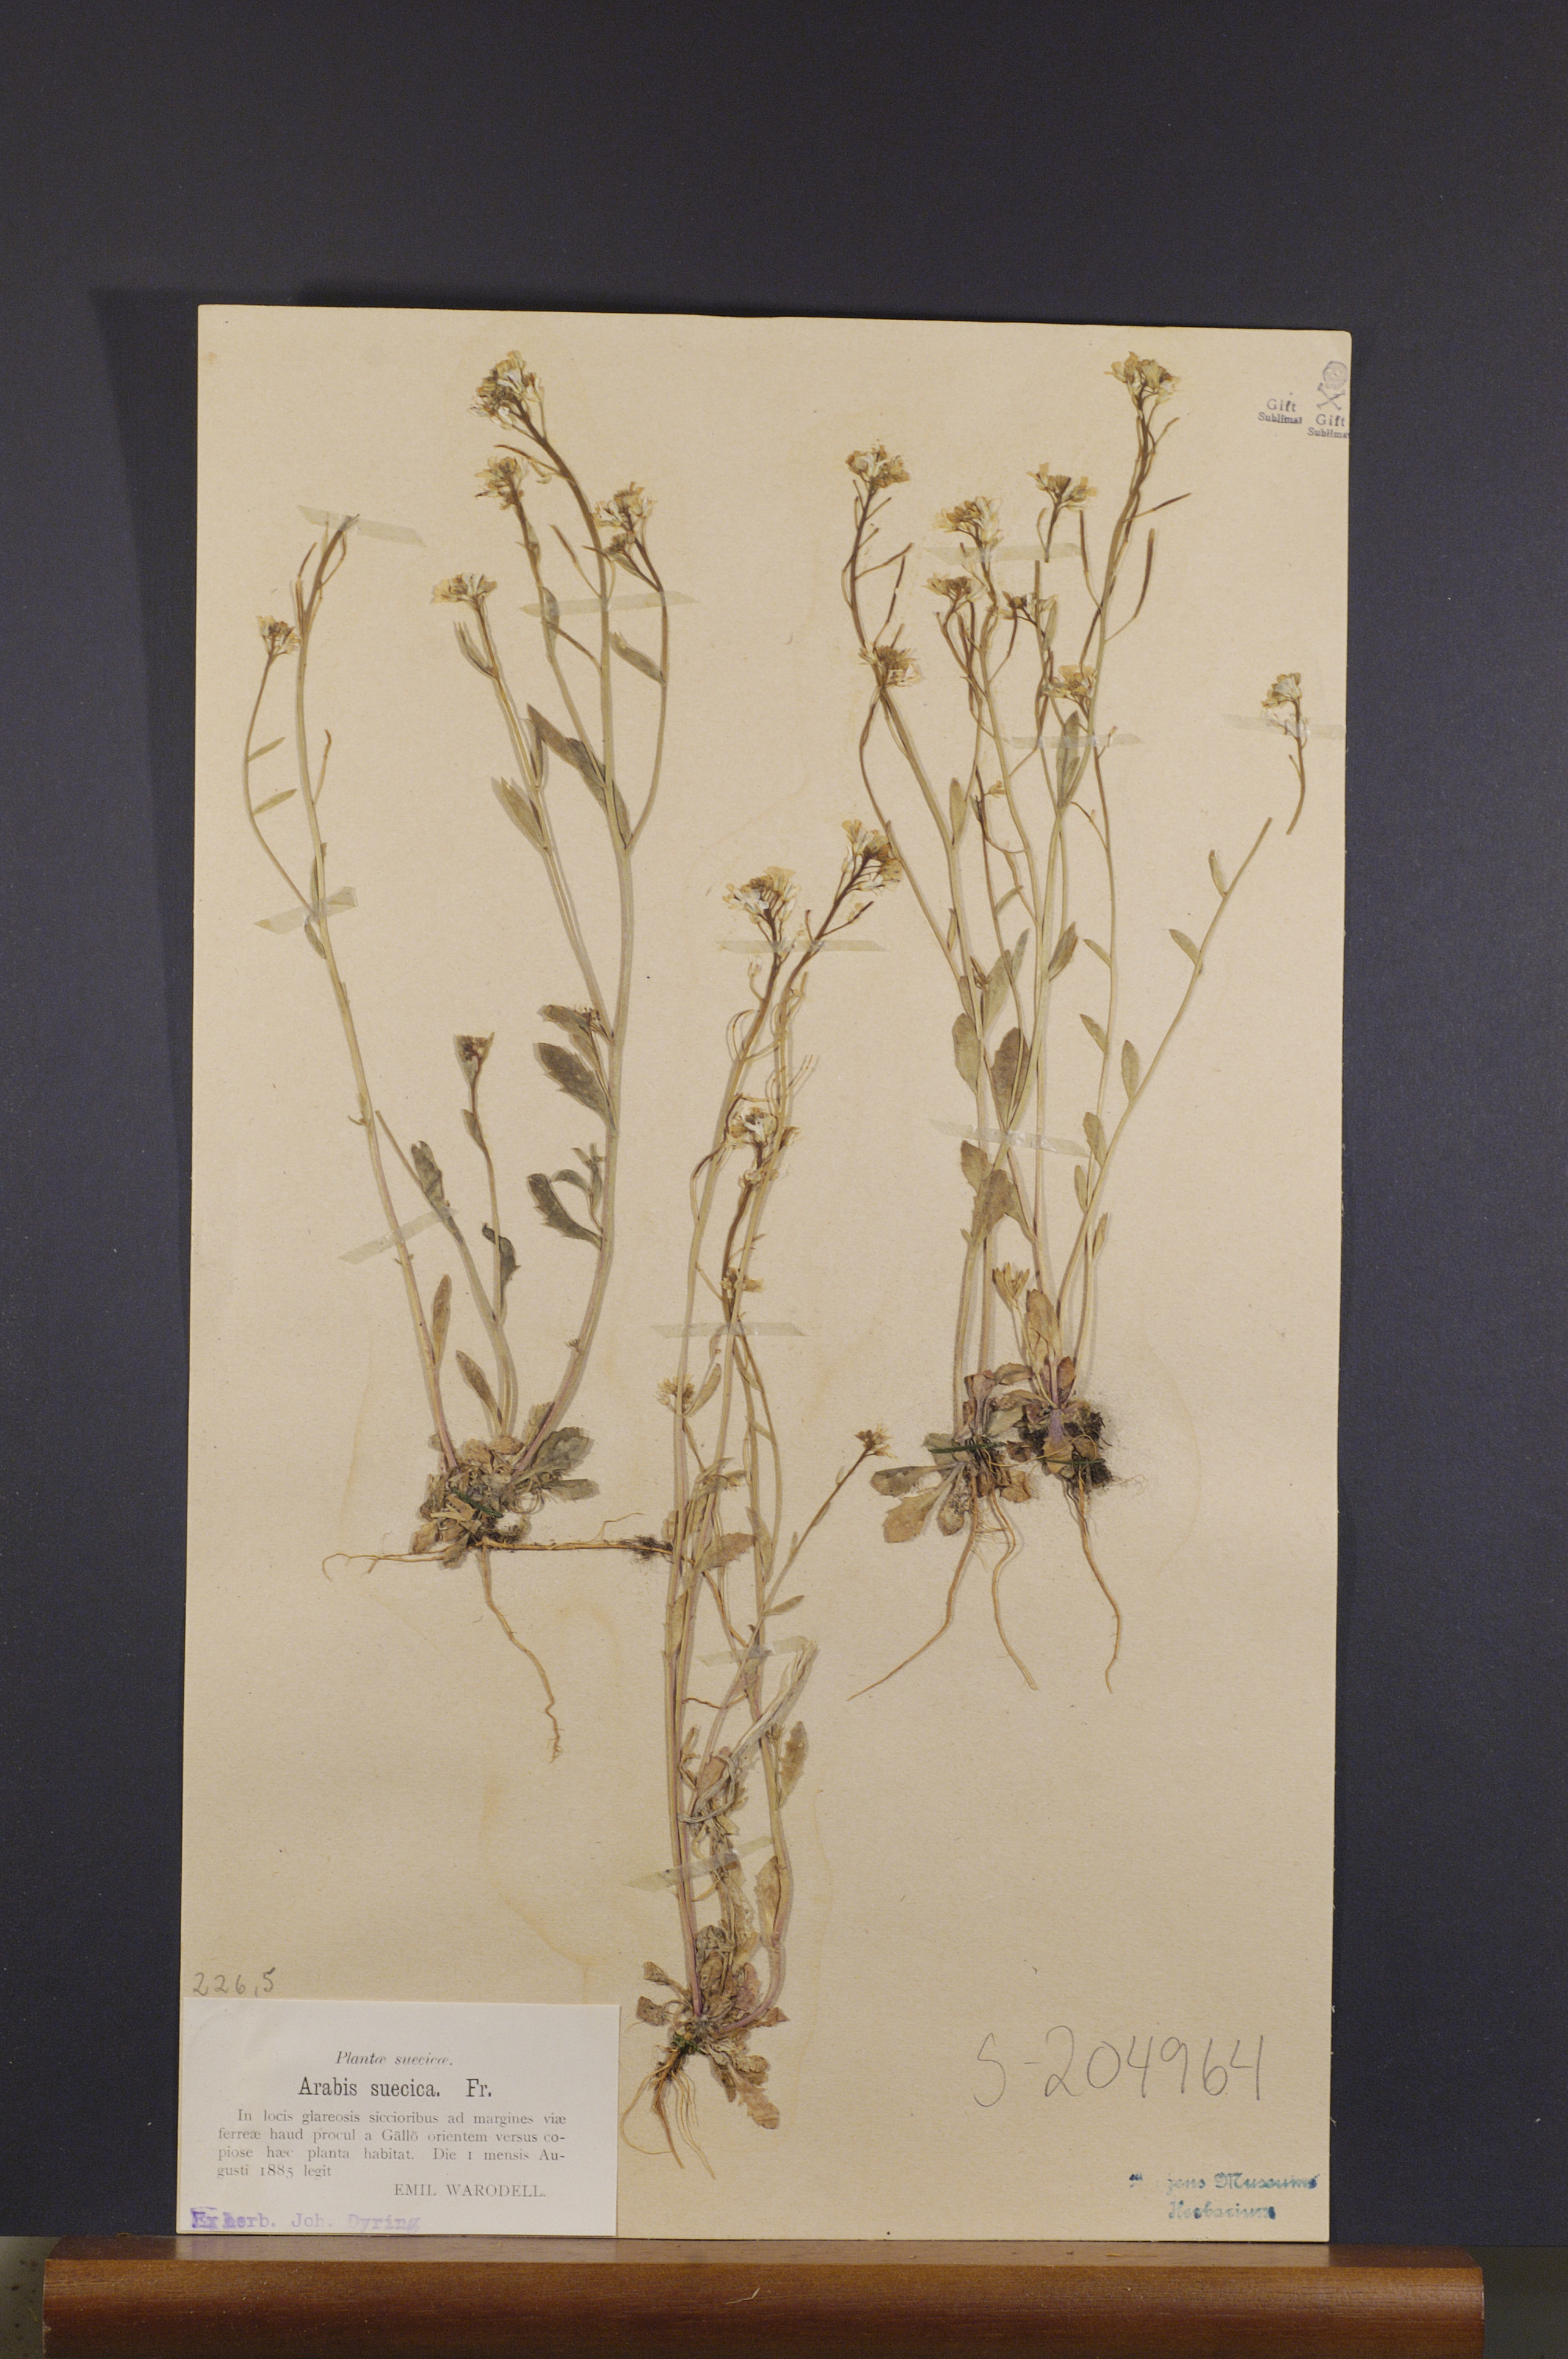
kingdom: Plantae
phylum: Tracheophyta
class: Magnoliopsida
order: Brassicales
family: Brassicaceae
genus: Arabidopsis
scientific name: Arabidopsis suecica
